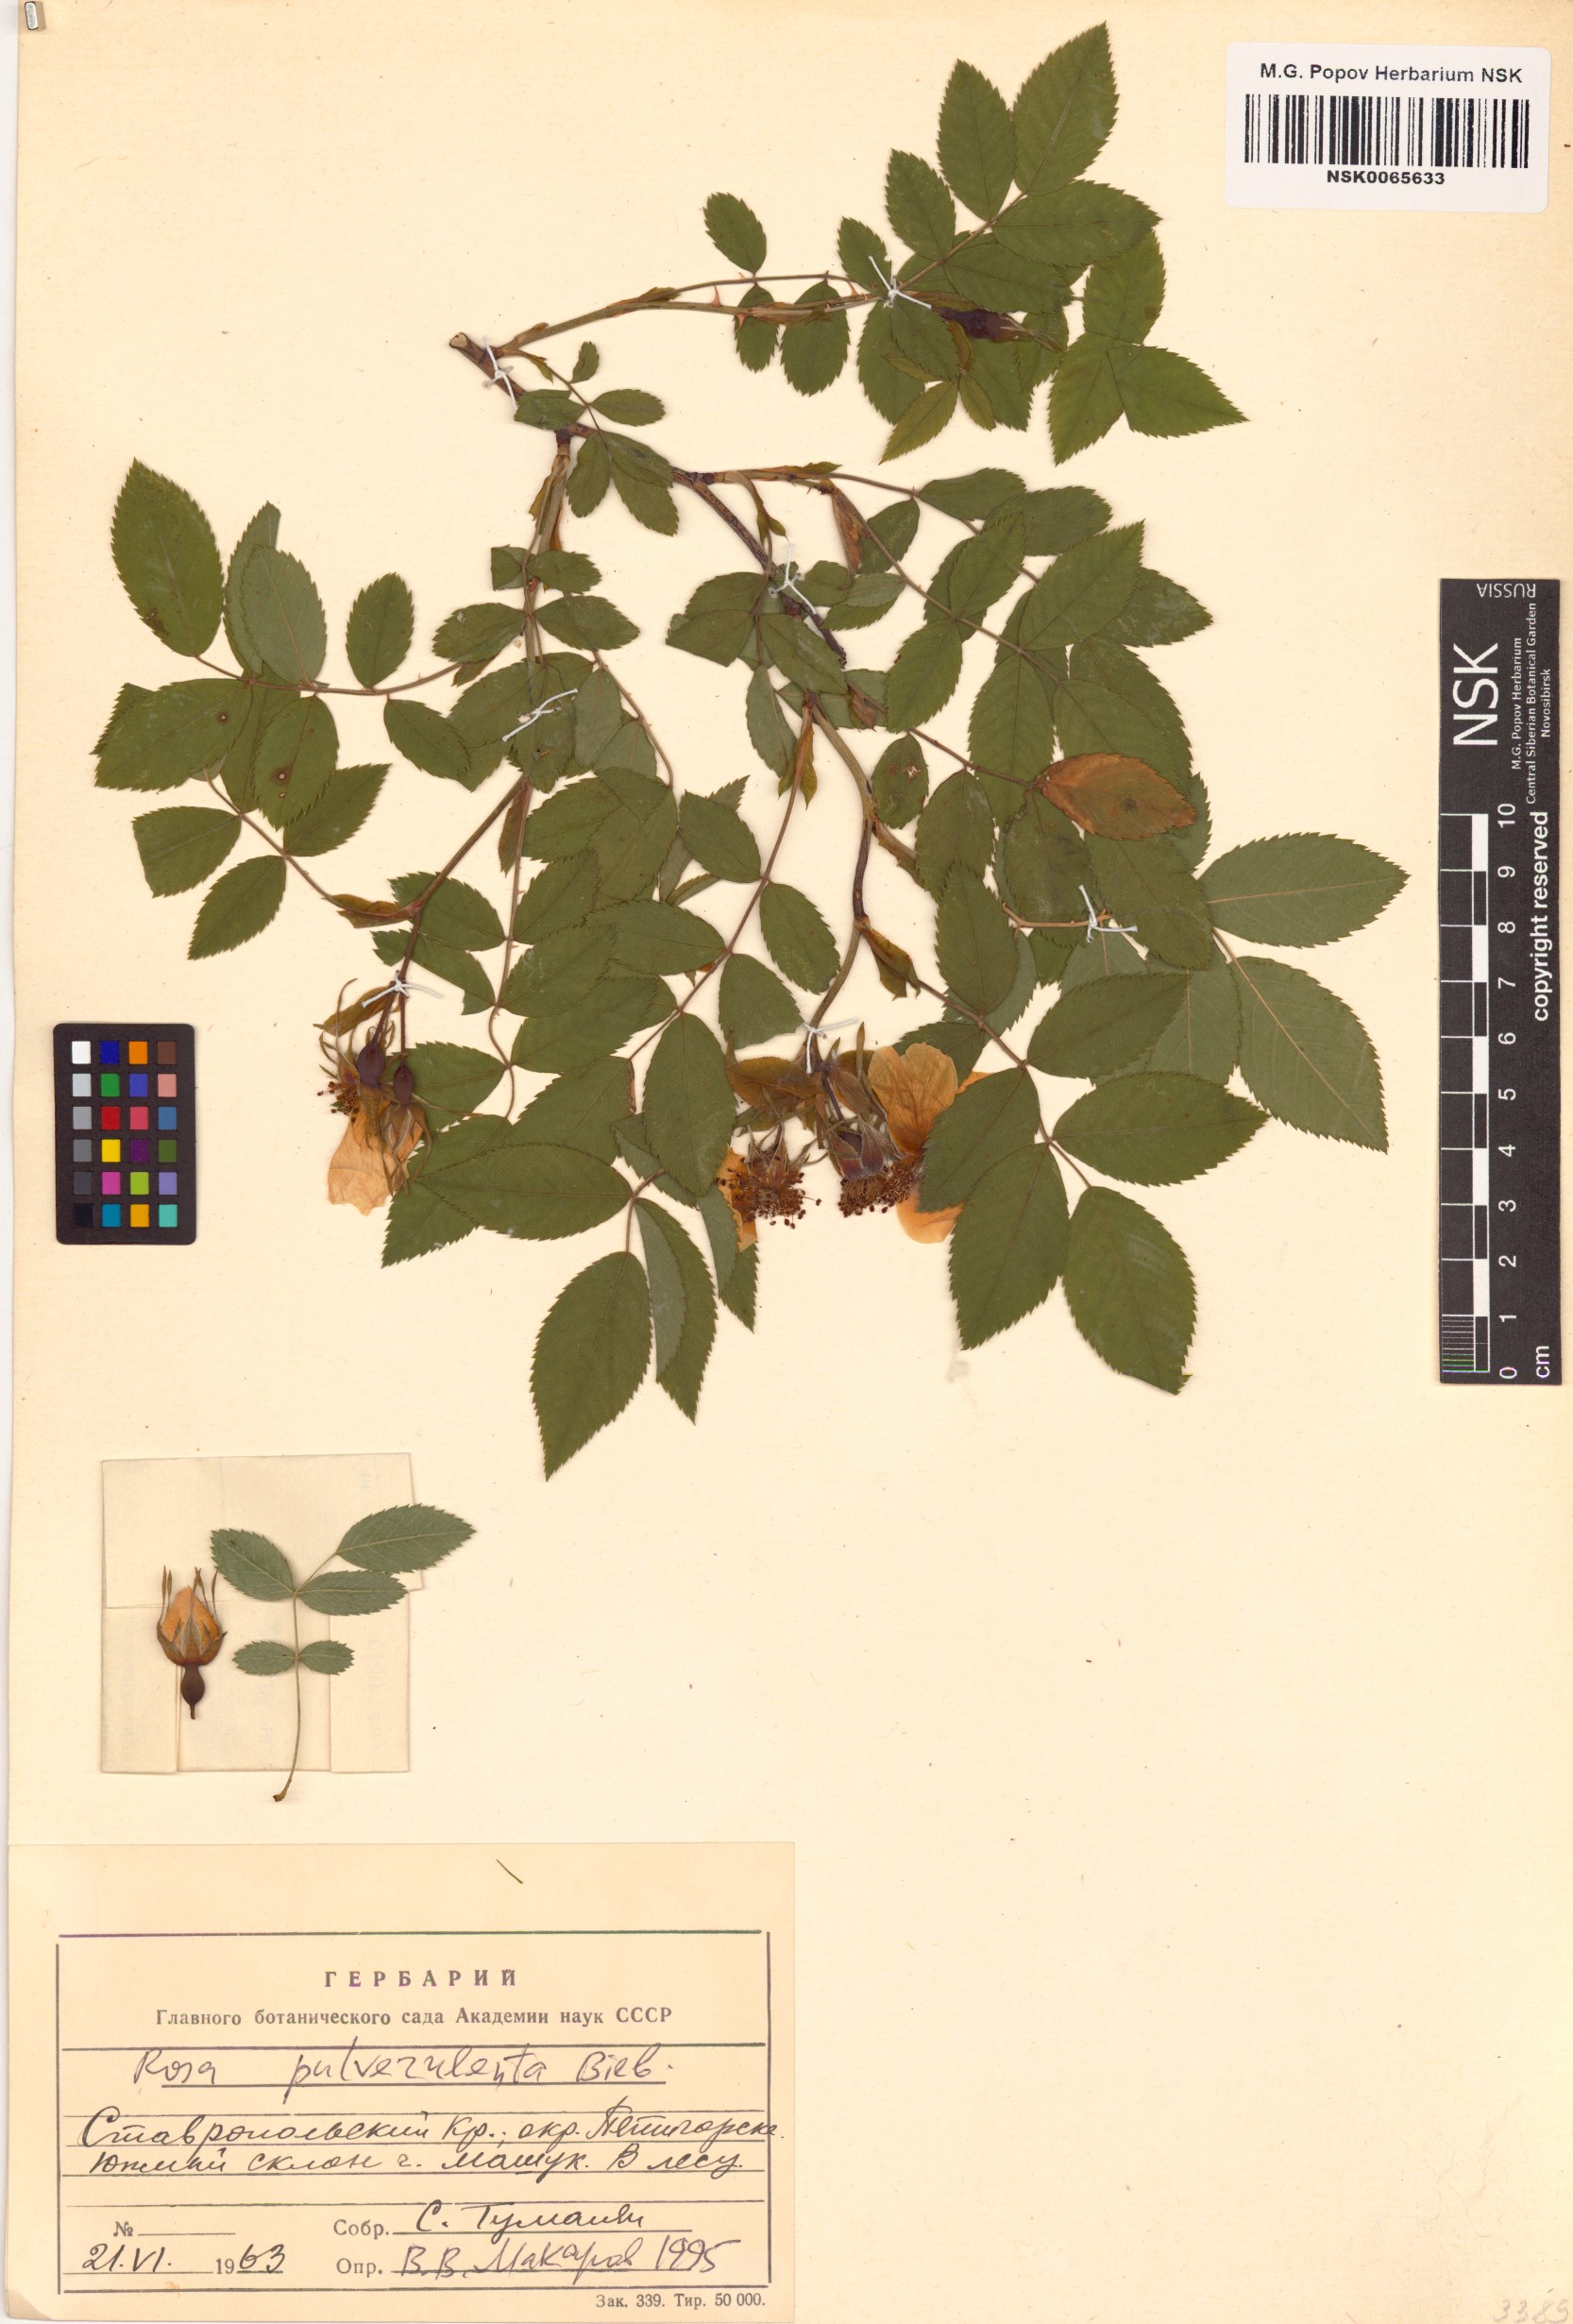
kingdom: Plantae
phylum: Tracheophyta
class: Magnoliopsida
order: Rosales
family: Rosaceae
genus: Rosa
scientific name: Rosa pulverulenta
